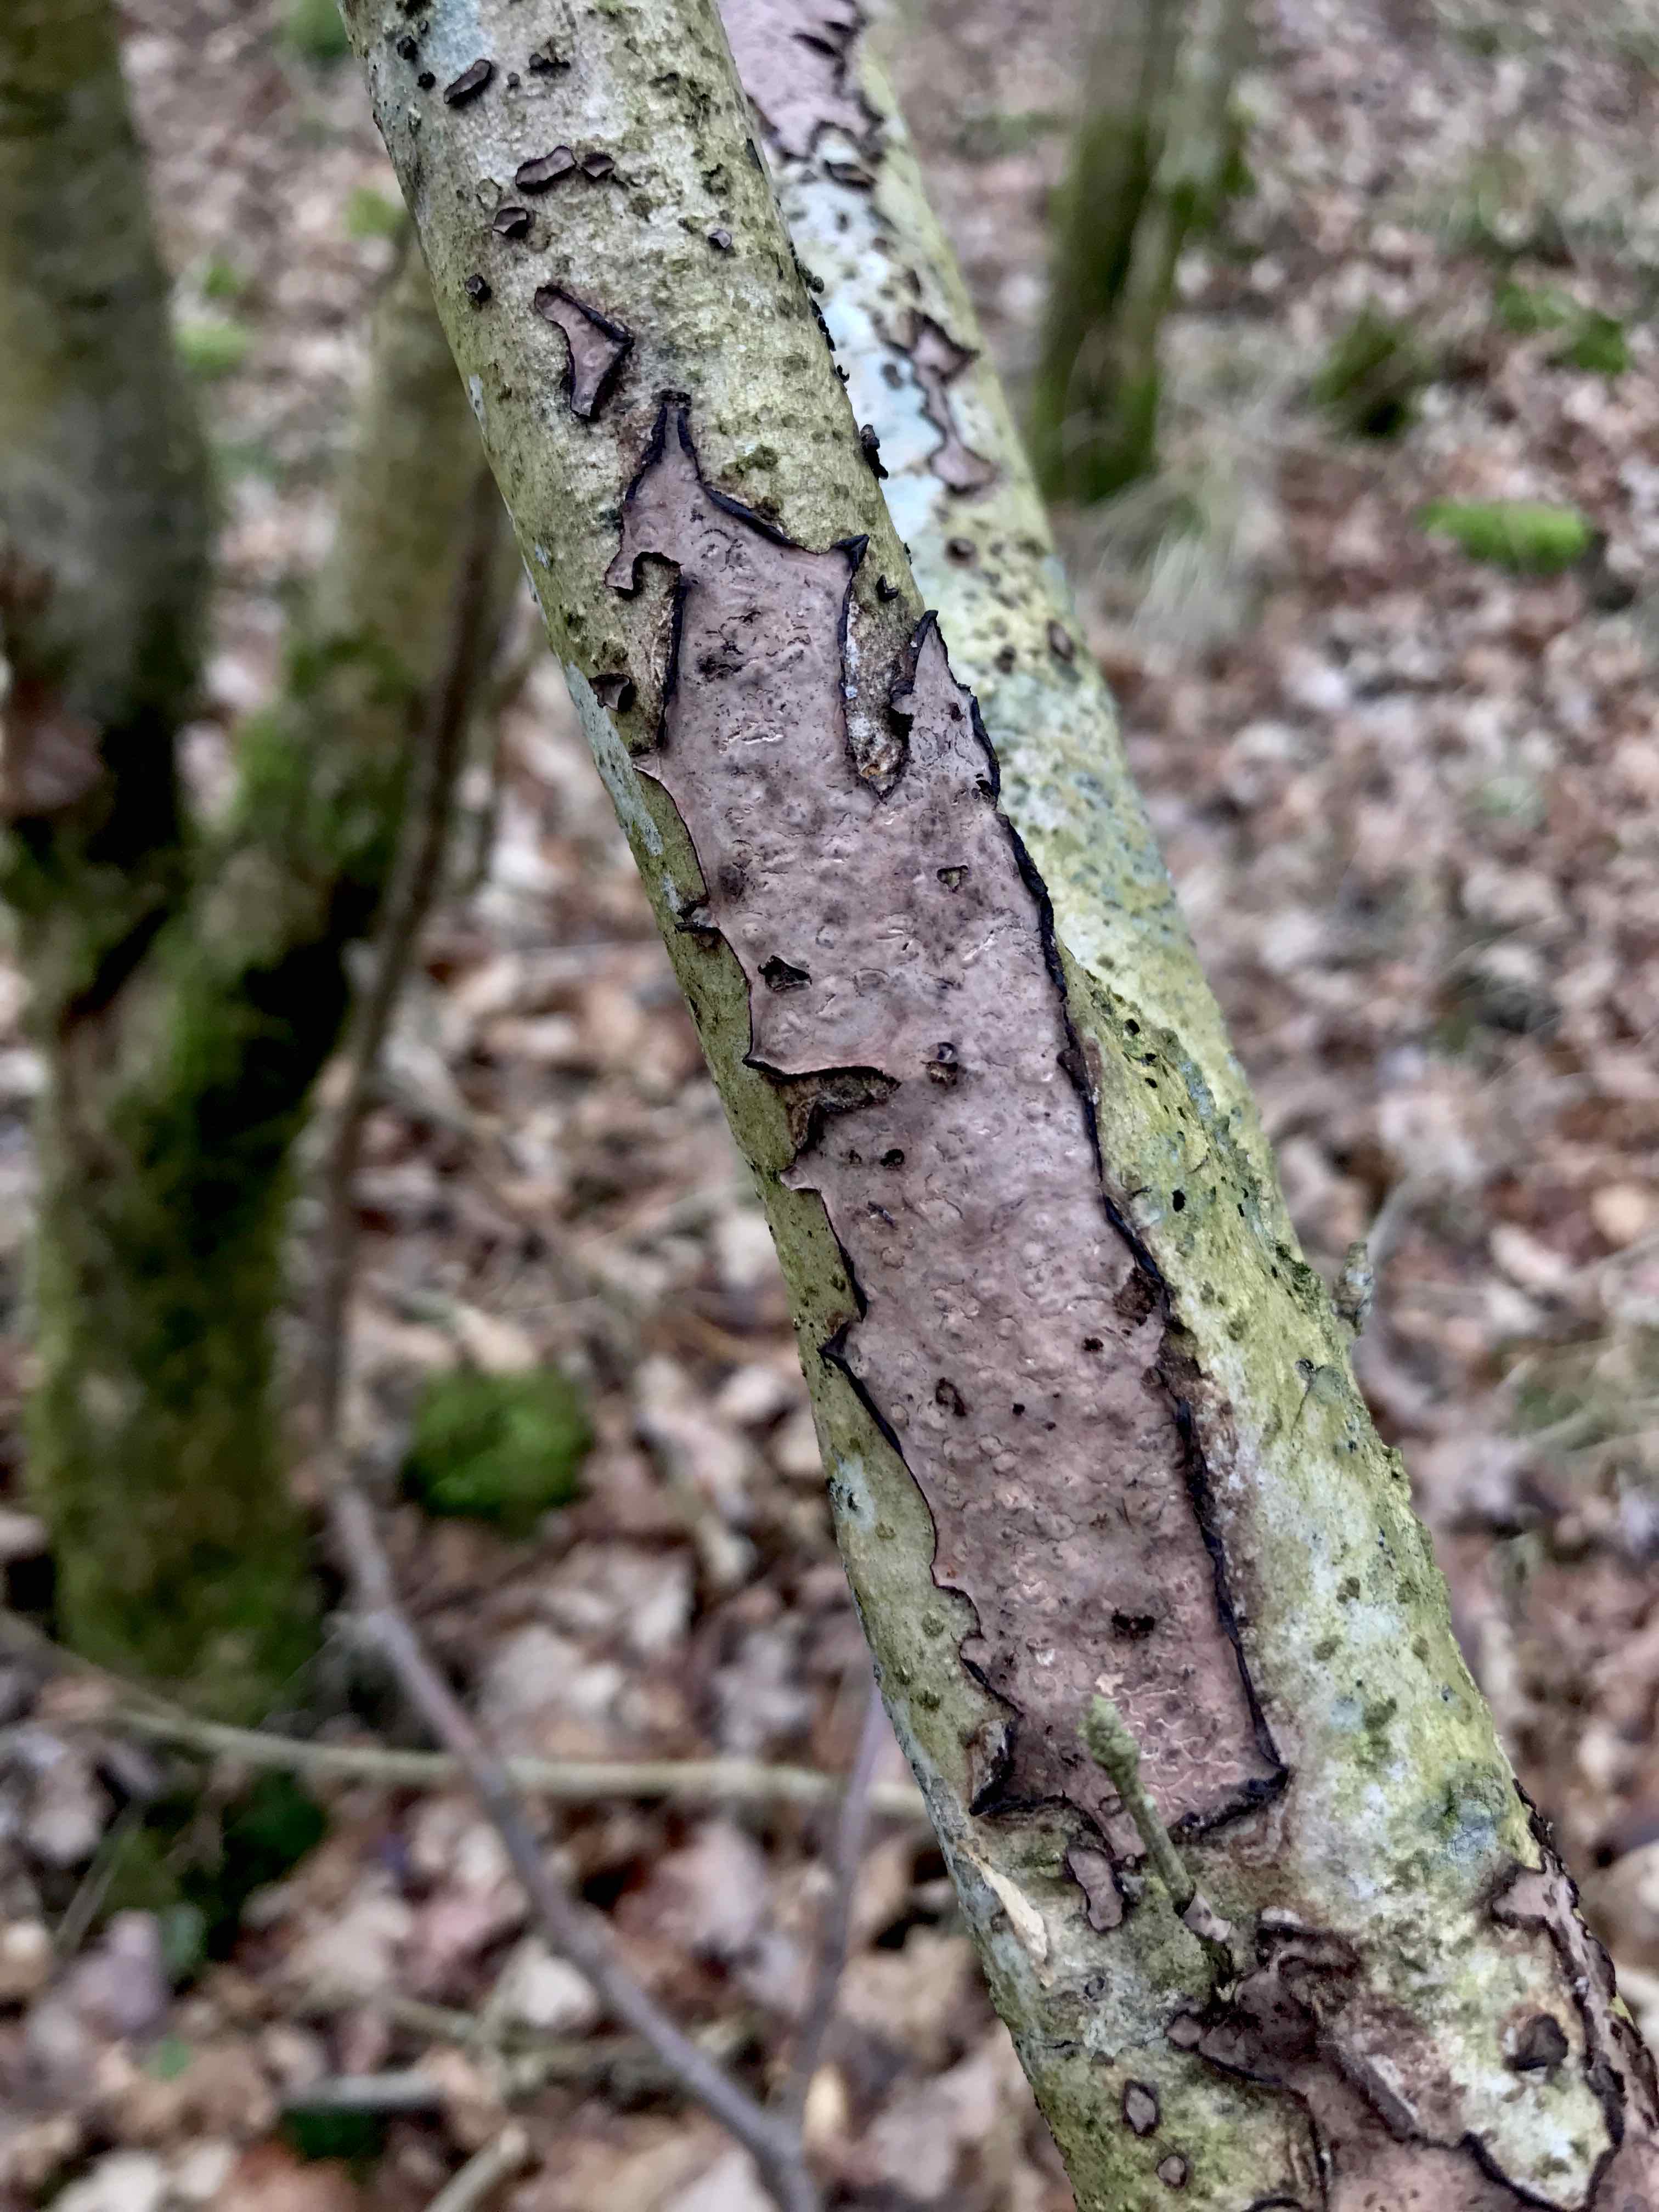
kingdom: Fungi
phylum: Basidiomycota
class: Agaricomycetes
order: Russulales
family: Peniophoraceae
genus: Peniophora
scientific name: Peniophora quercina
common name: ege-voksskind
